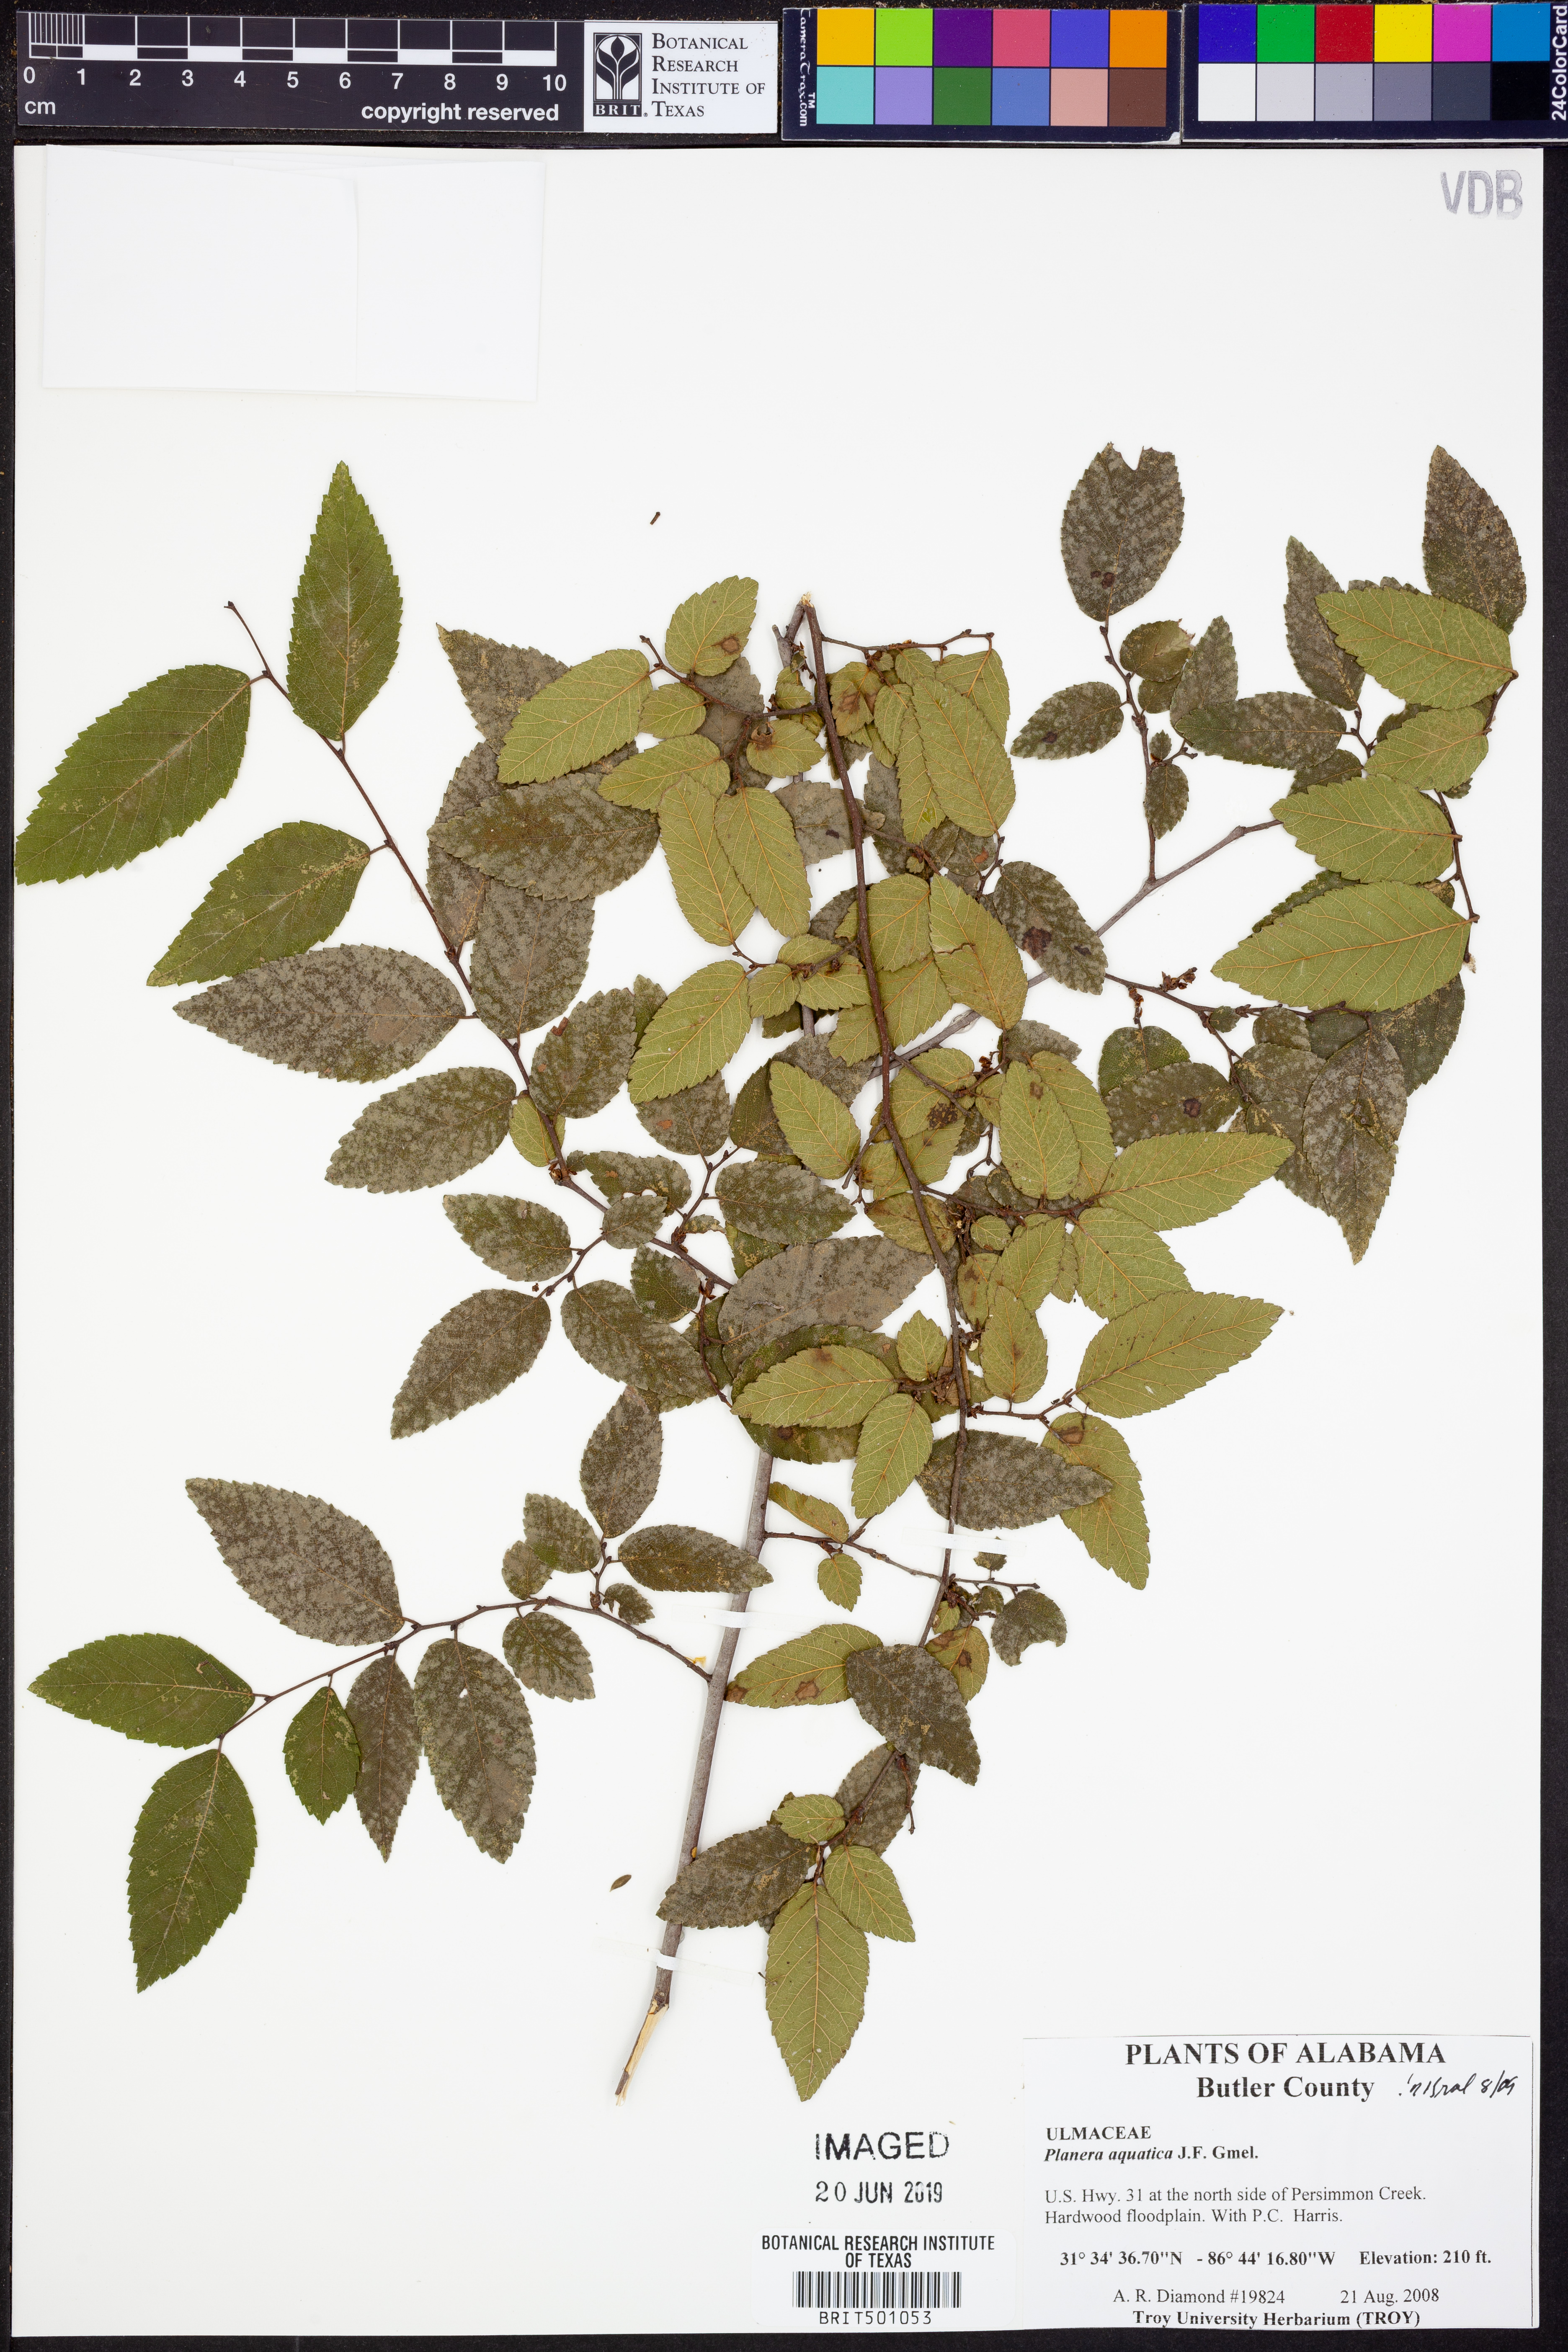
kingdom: Plantae
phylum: Tracheophyta
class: Magnoliopsida
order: Rosales
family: Ulmaceae
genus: Planera
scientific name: Planera aquatica
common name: Water-elm
